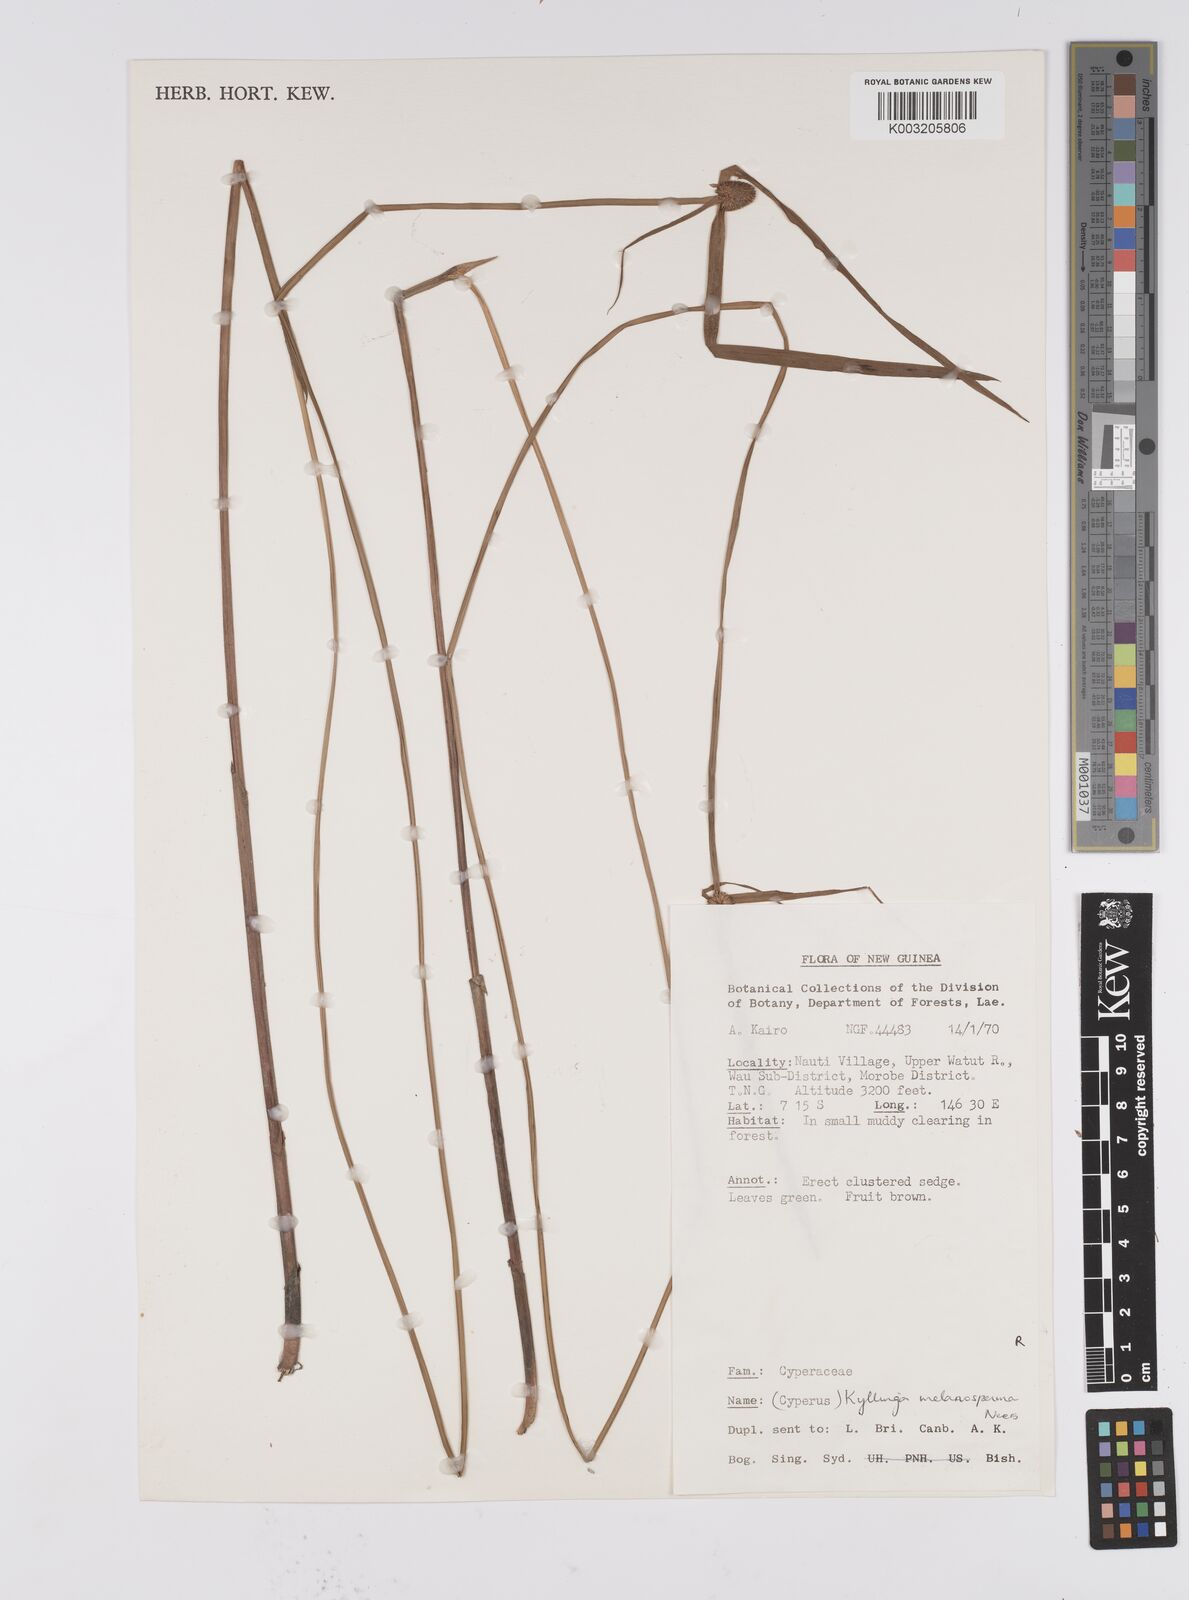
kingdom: Plantae
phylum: Tracheophyta
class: Liliopsida
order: Poales
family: Cyperaceae
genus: Cyperus
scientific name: Cyperus melanospermus
